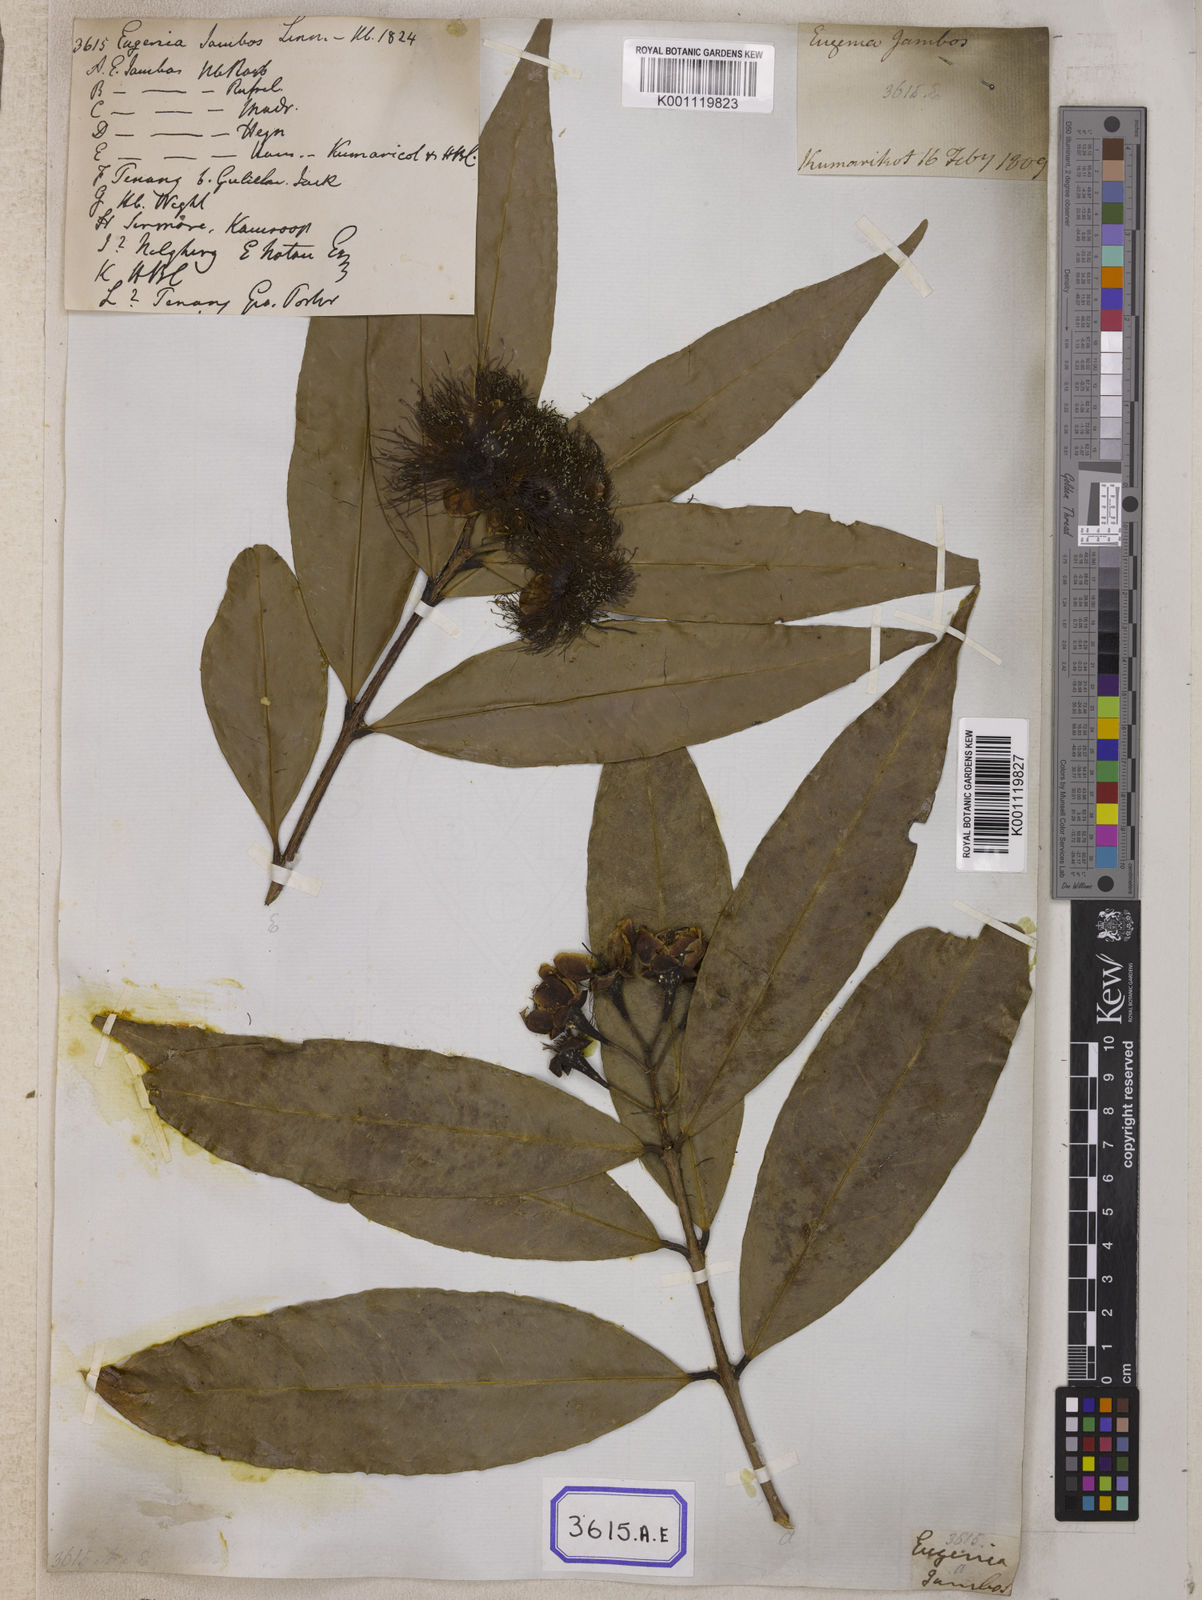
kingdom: Plantae
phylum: Tracheophyta
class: Magnoliopsida
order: Myrtales
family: Myrtaceae
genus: Syzygium
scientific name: Syzygium jambos
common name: Malabar plum
